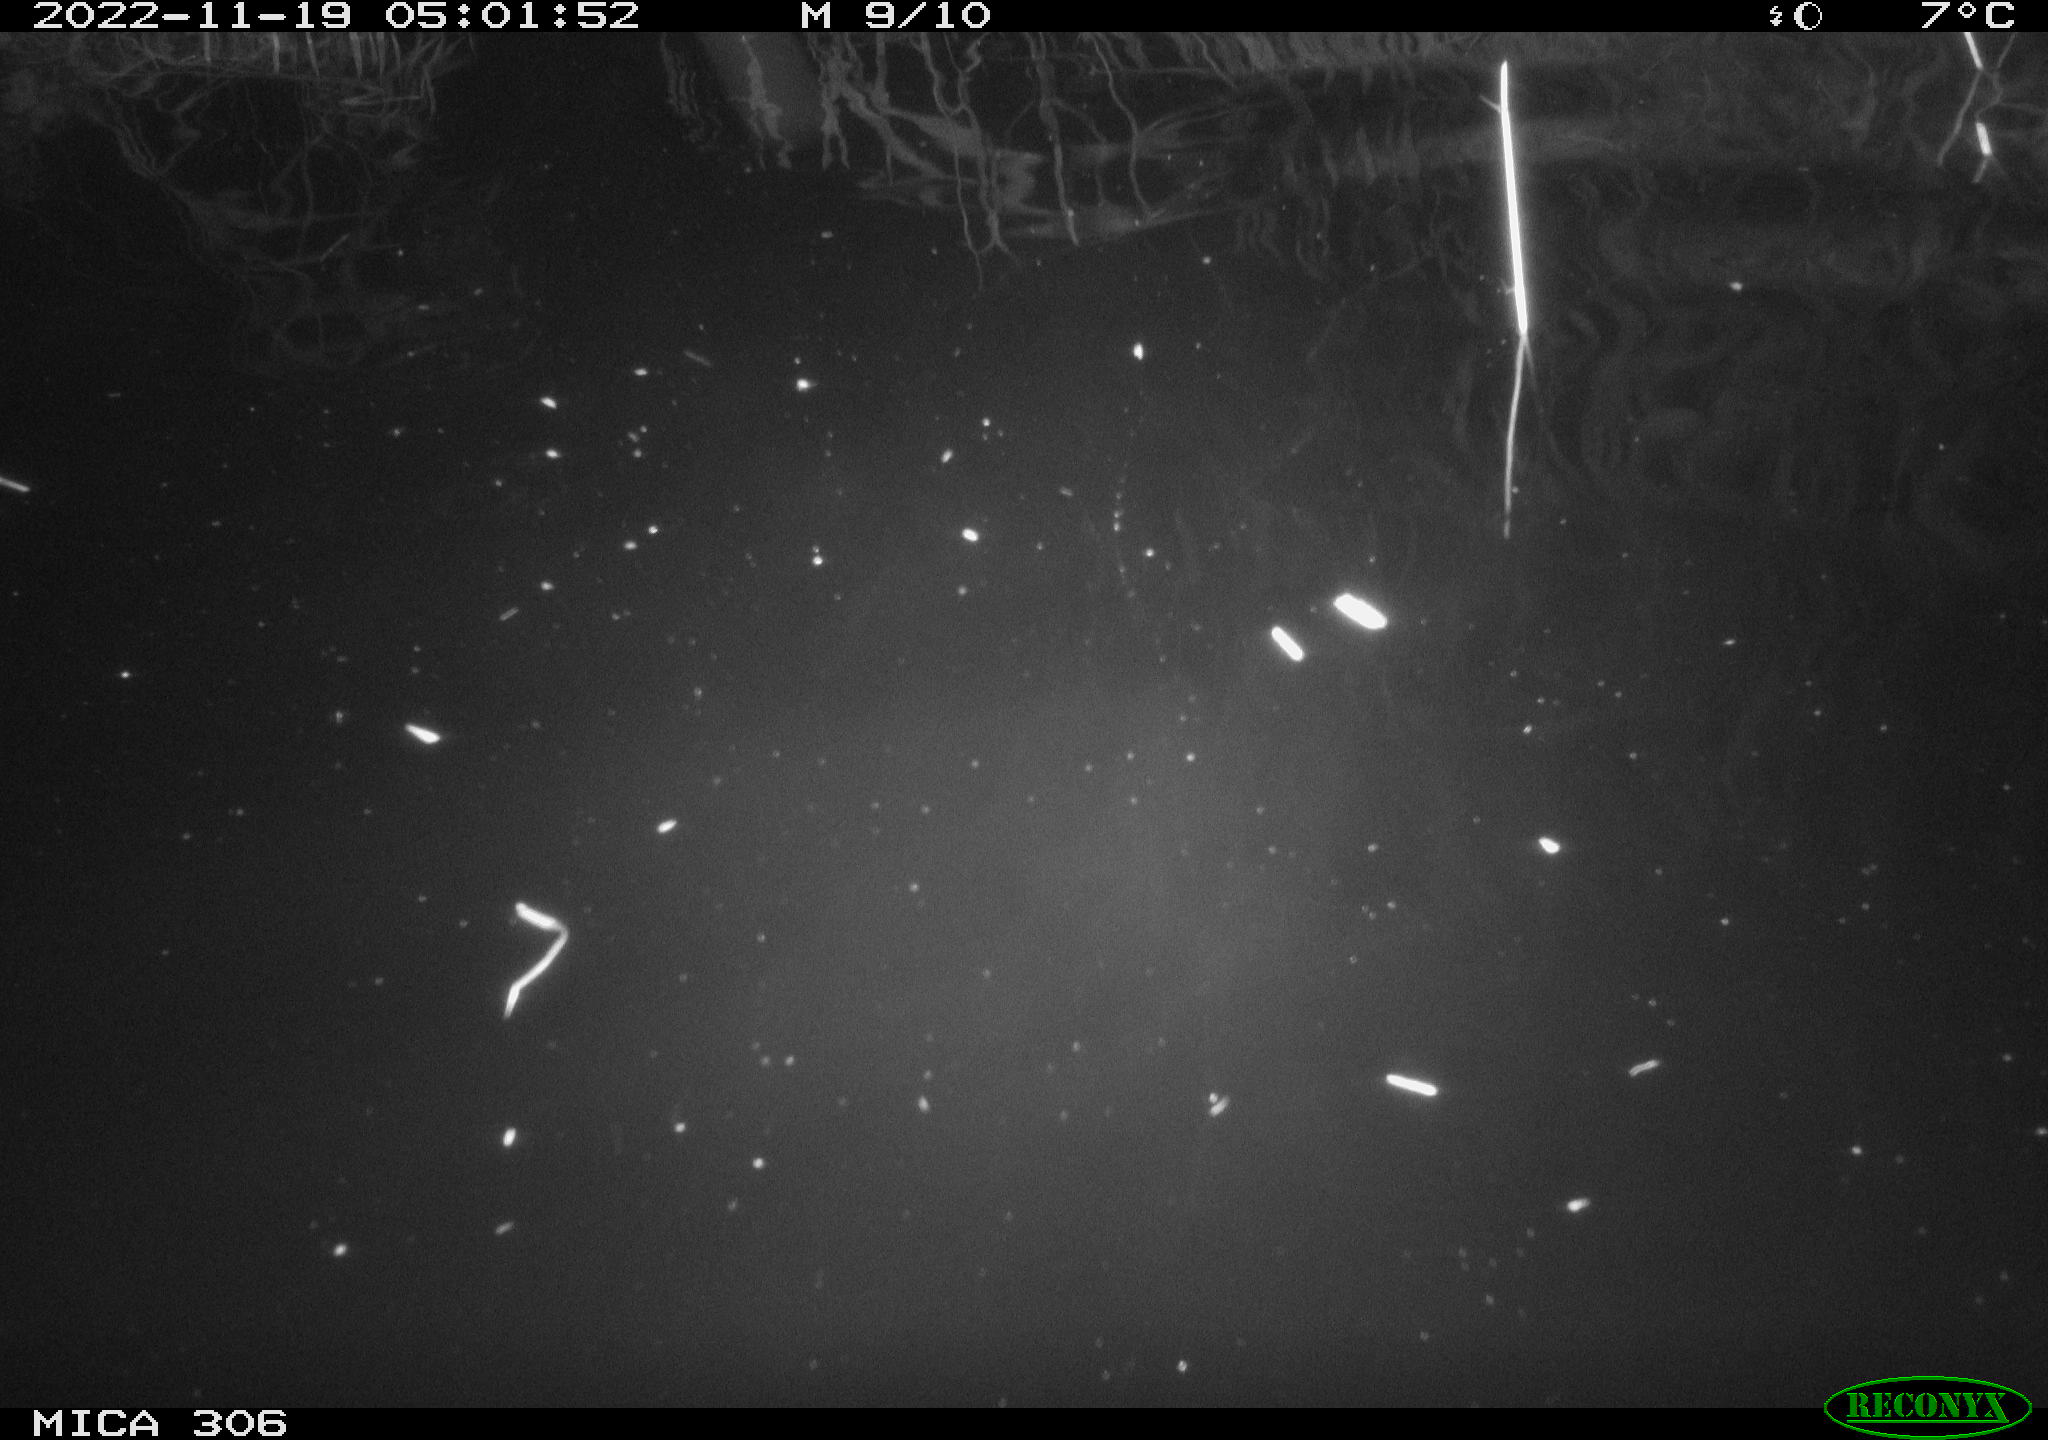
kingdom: Animalia
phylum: Chordata
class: Mammalia
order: Rodentia
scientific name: Rodentia
